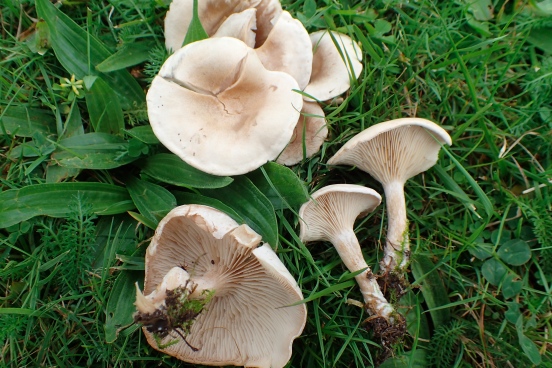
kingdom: Fungi
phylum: Basidiomycota
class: Agaricomycetes
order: Agaricales
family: Tricholomataceae
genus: Clitocybe
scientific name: Clitocybe rivulosa
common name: eng-tragthat
